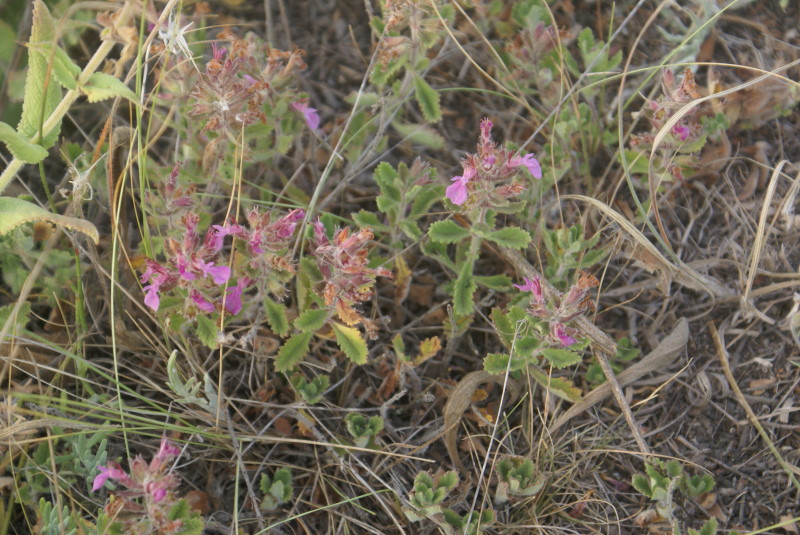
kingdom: Plantae
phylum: Tracheophyta
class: Magnoliopsida
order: Lamiales
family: Lamiaceae
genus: Thymus
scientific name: Thymus
